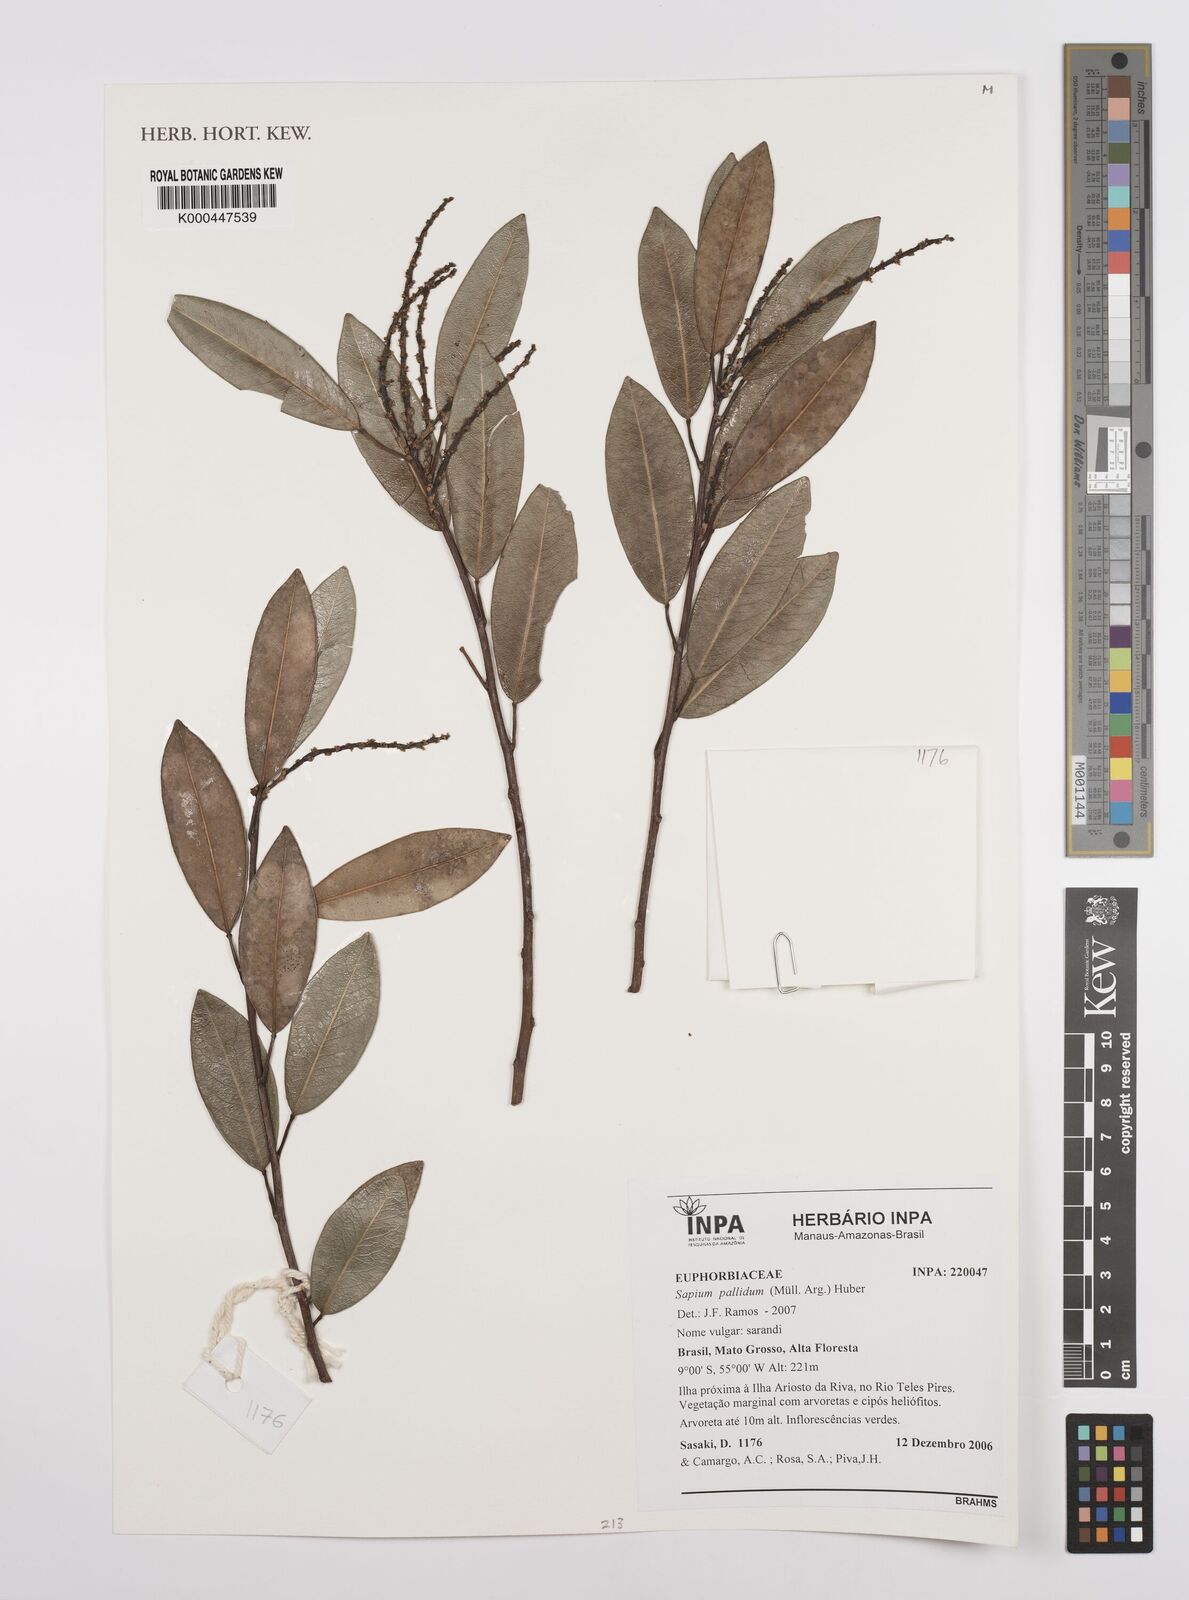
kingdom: Plantae
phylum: Tracheophyta
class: Magnoliopsida
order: Malpighiales
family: Euphorbiaceae
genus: Sapium
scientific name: Sapium
